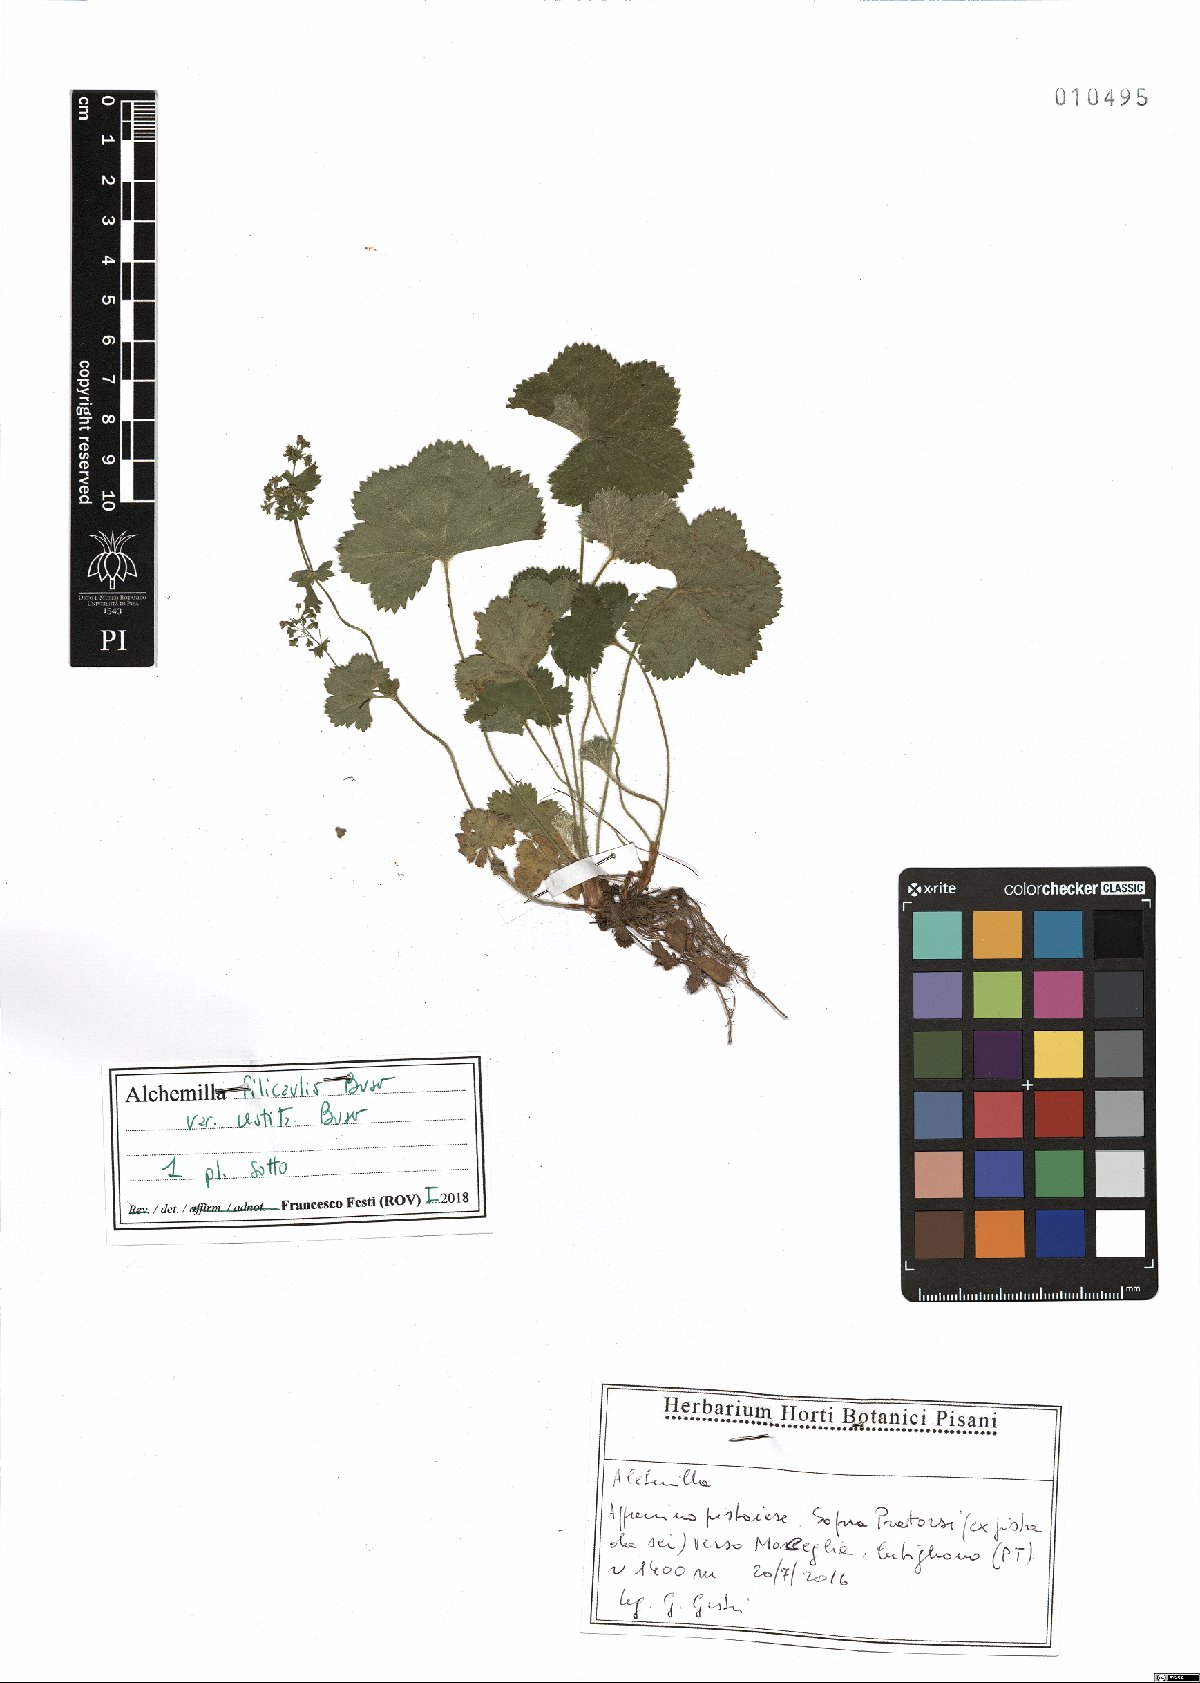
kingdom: Plantae
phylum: Tracheophyta
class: Magnoliopsida
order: Rosales
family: Rosaceae
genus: Alchemilla
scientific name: Alchemilla filicaulis
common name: Hairy lady's-mantle
